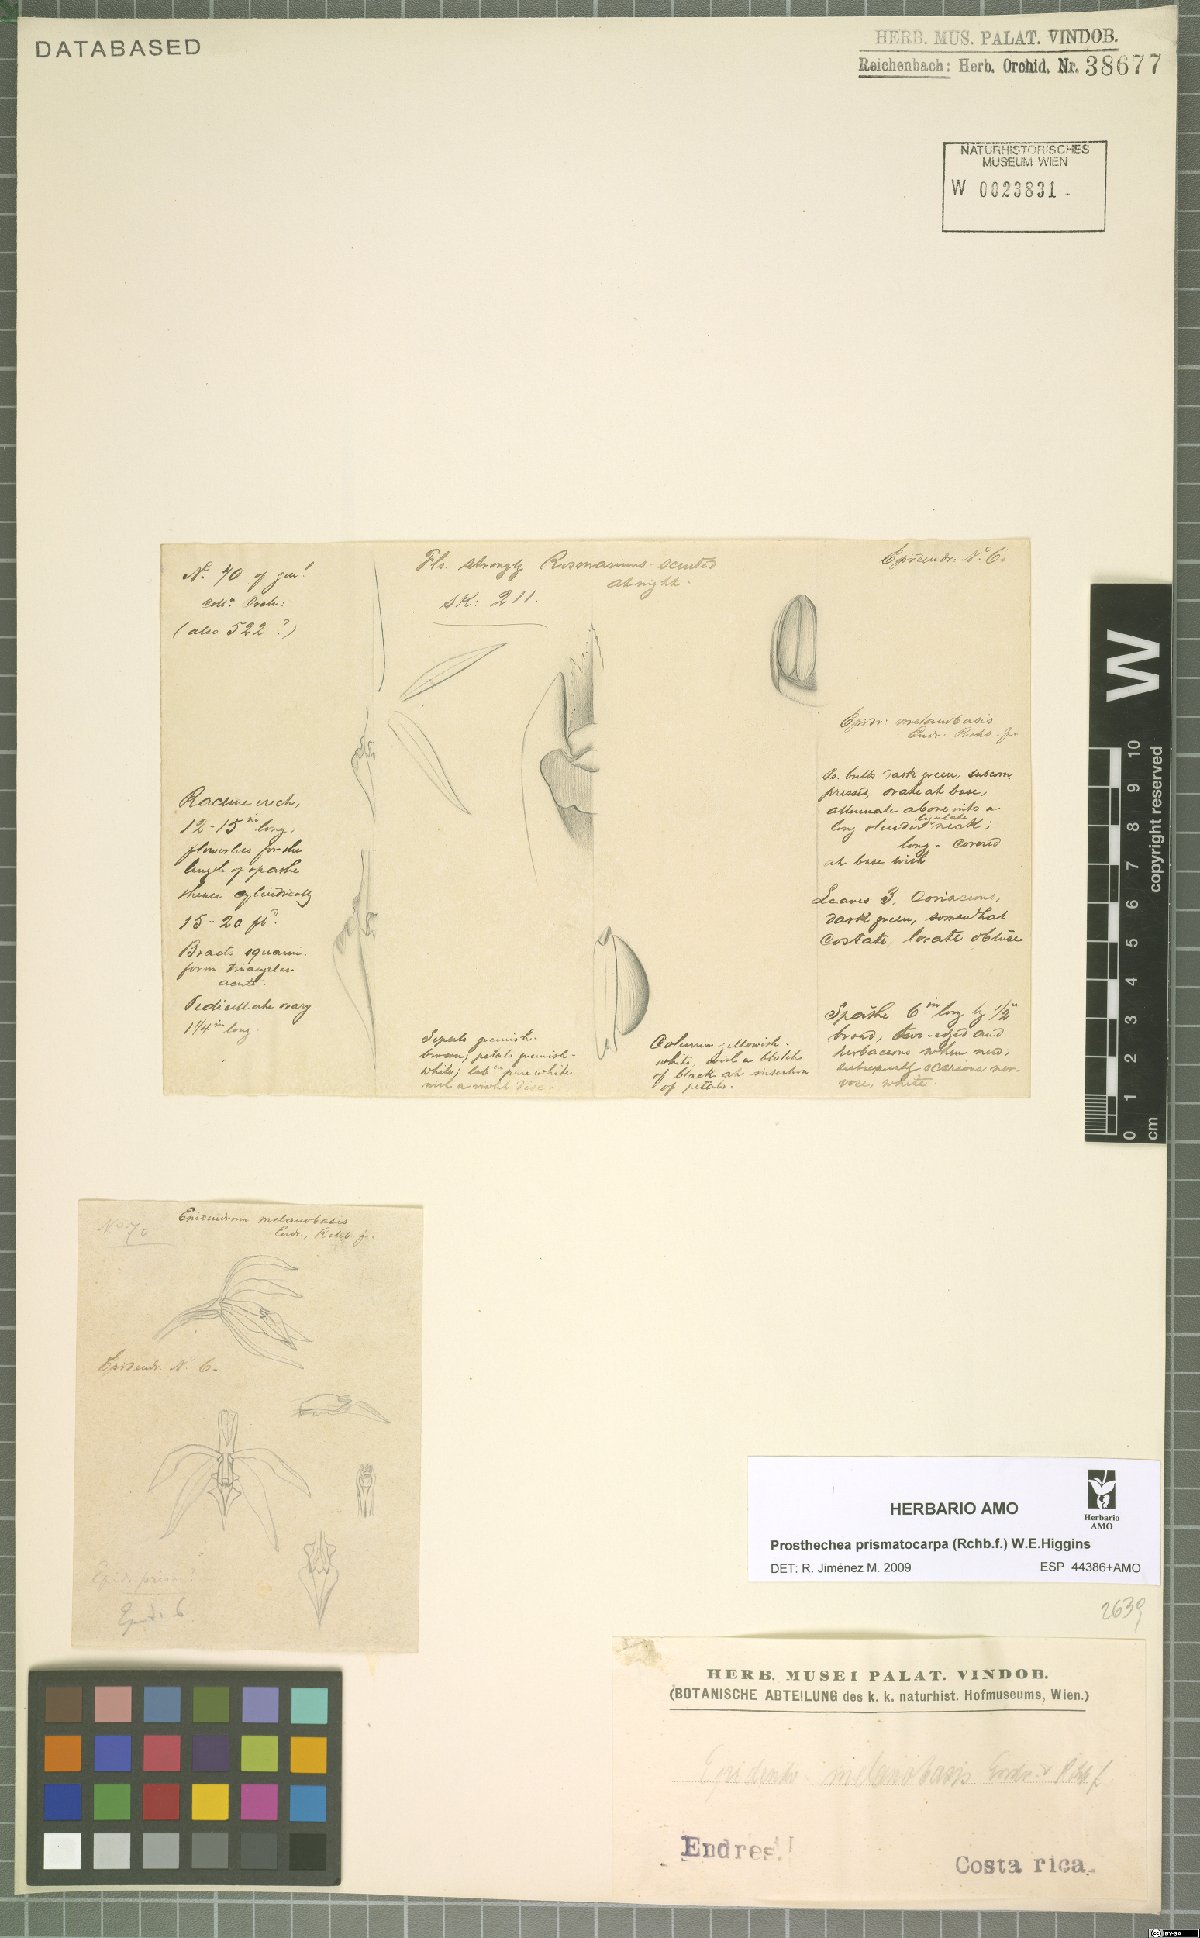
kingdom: Plantae
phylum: Tracheophyta
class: Liliopsida
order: Asparagales
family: Orchidaceae
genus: Prosthechea
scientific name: Prosthechea prismatocarpa
